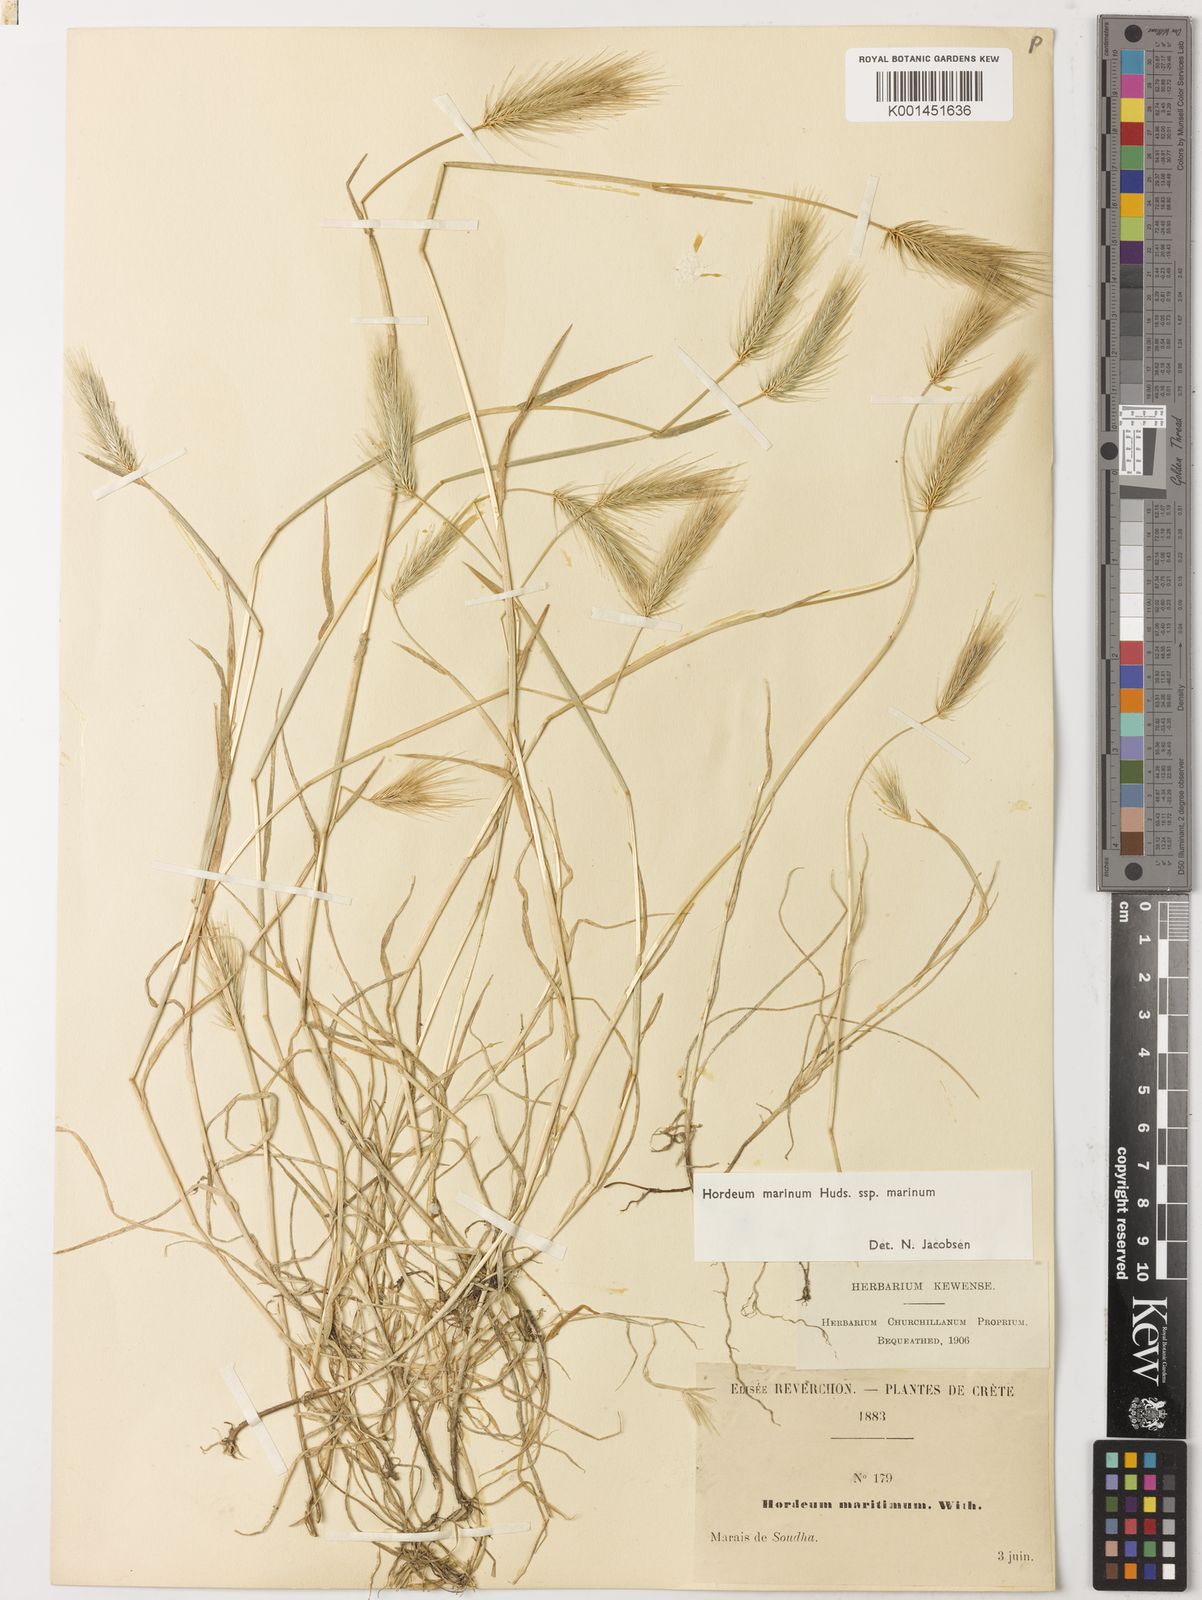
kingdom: Plantae
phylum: Tracheophyta
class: Liliopsida
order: Poales
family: Poaceae
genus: Hordeum
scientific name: Hordeum marinum
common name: Sea barley
